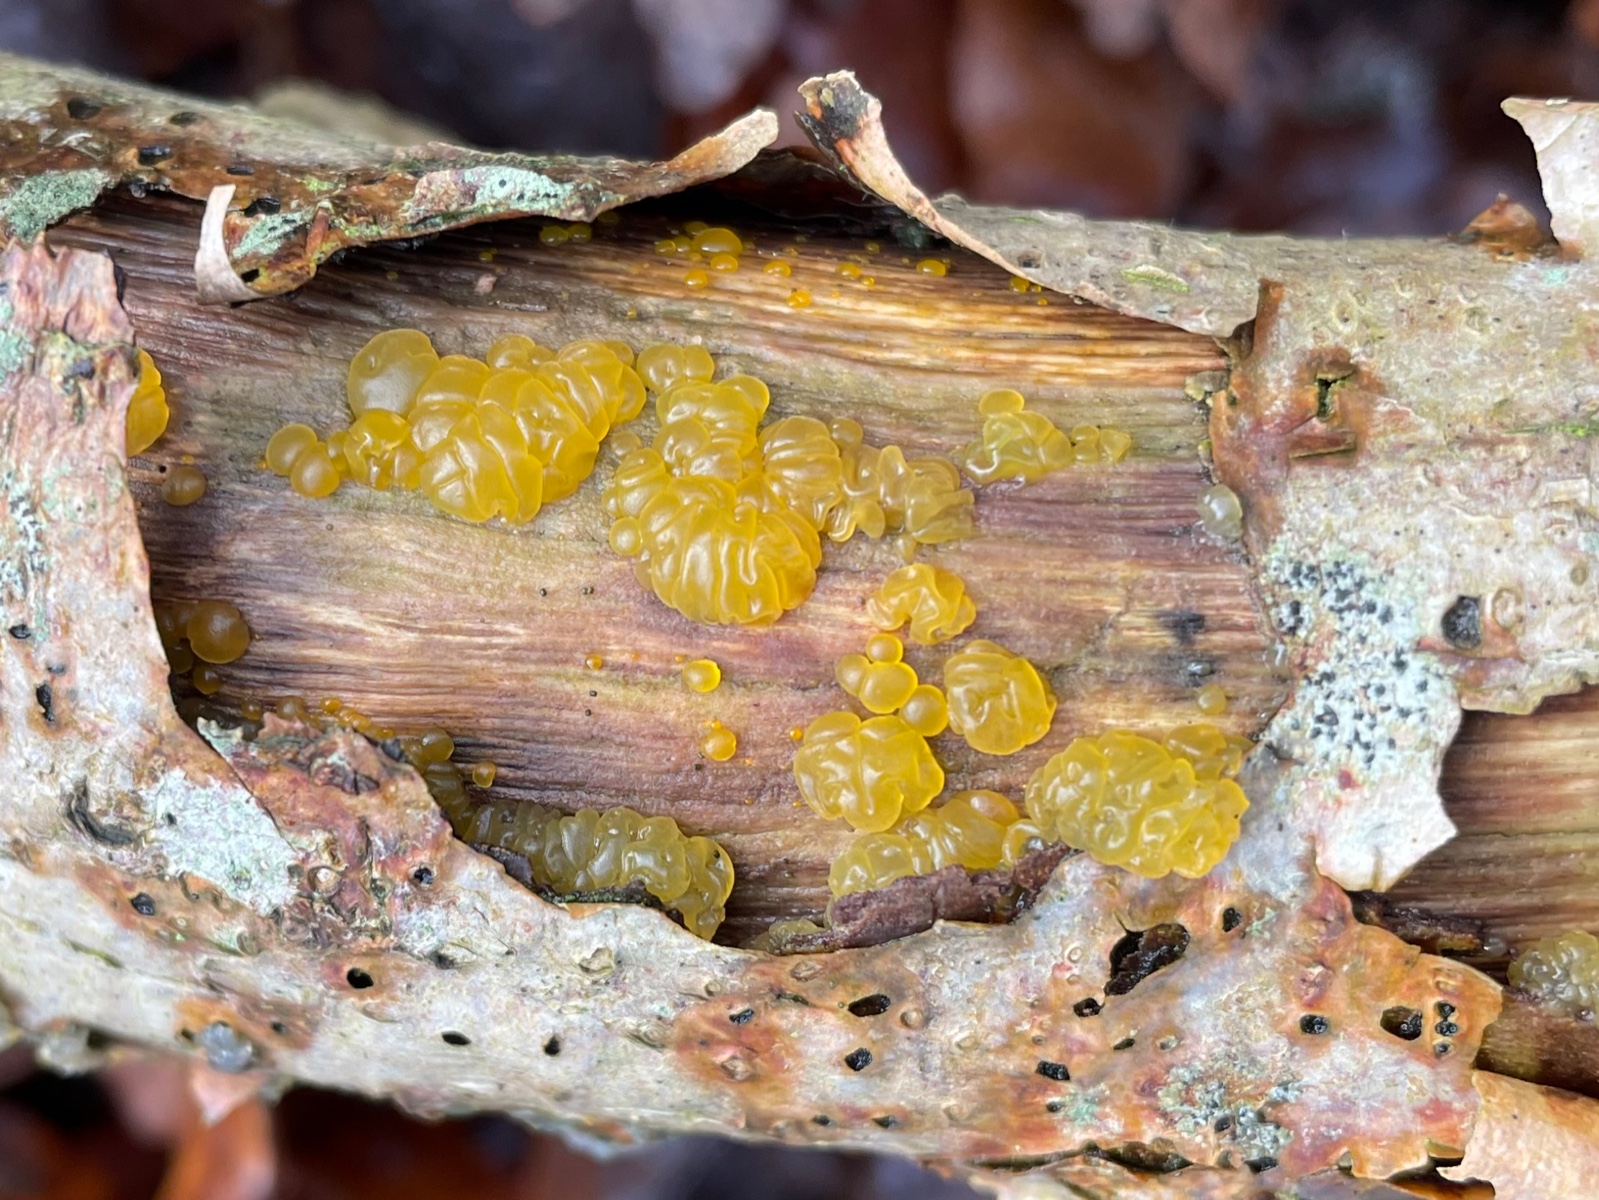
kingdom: Fungi
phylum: Basidiomycota
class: Dacrymycetes
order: Dacrymycetales
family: Dacrymycetaceae
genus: Dacrymyces
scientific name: Dacrymyces lacrymalis
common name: rynket tåresvamp
